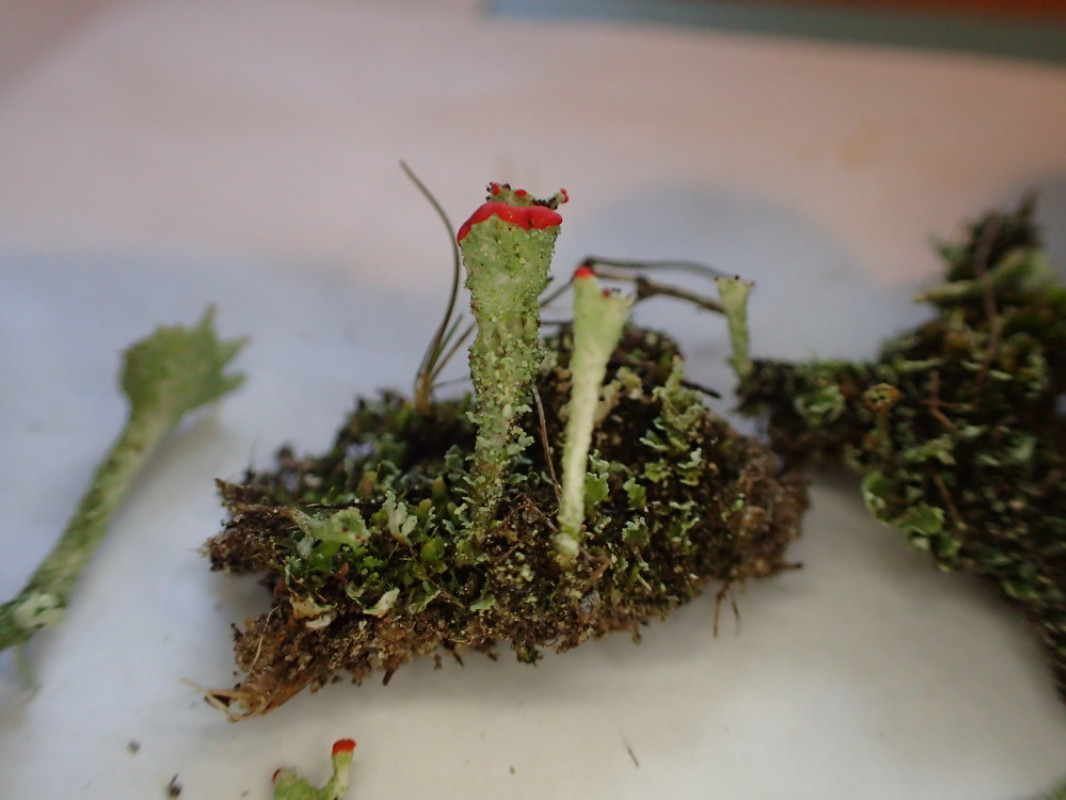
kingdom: Fungi
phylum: Ascomycota
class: Lecanoromycetes
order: Lecanorales
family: Cladoniaceae
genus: Cladonia
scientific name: Cladonia diversa
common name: rød bægerlav
